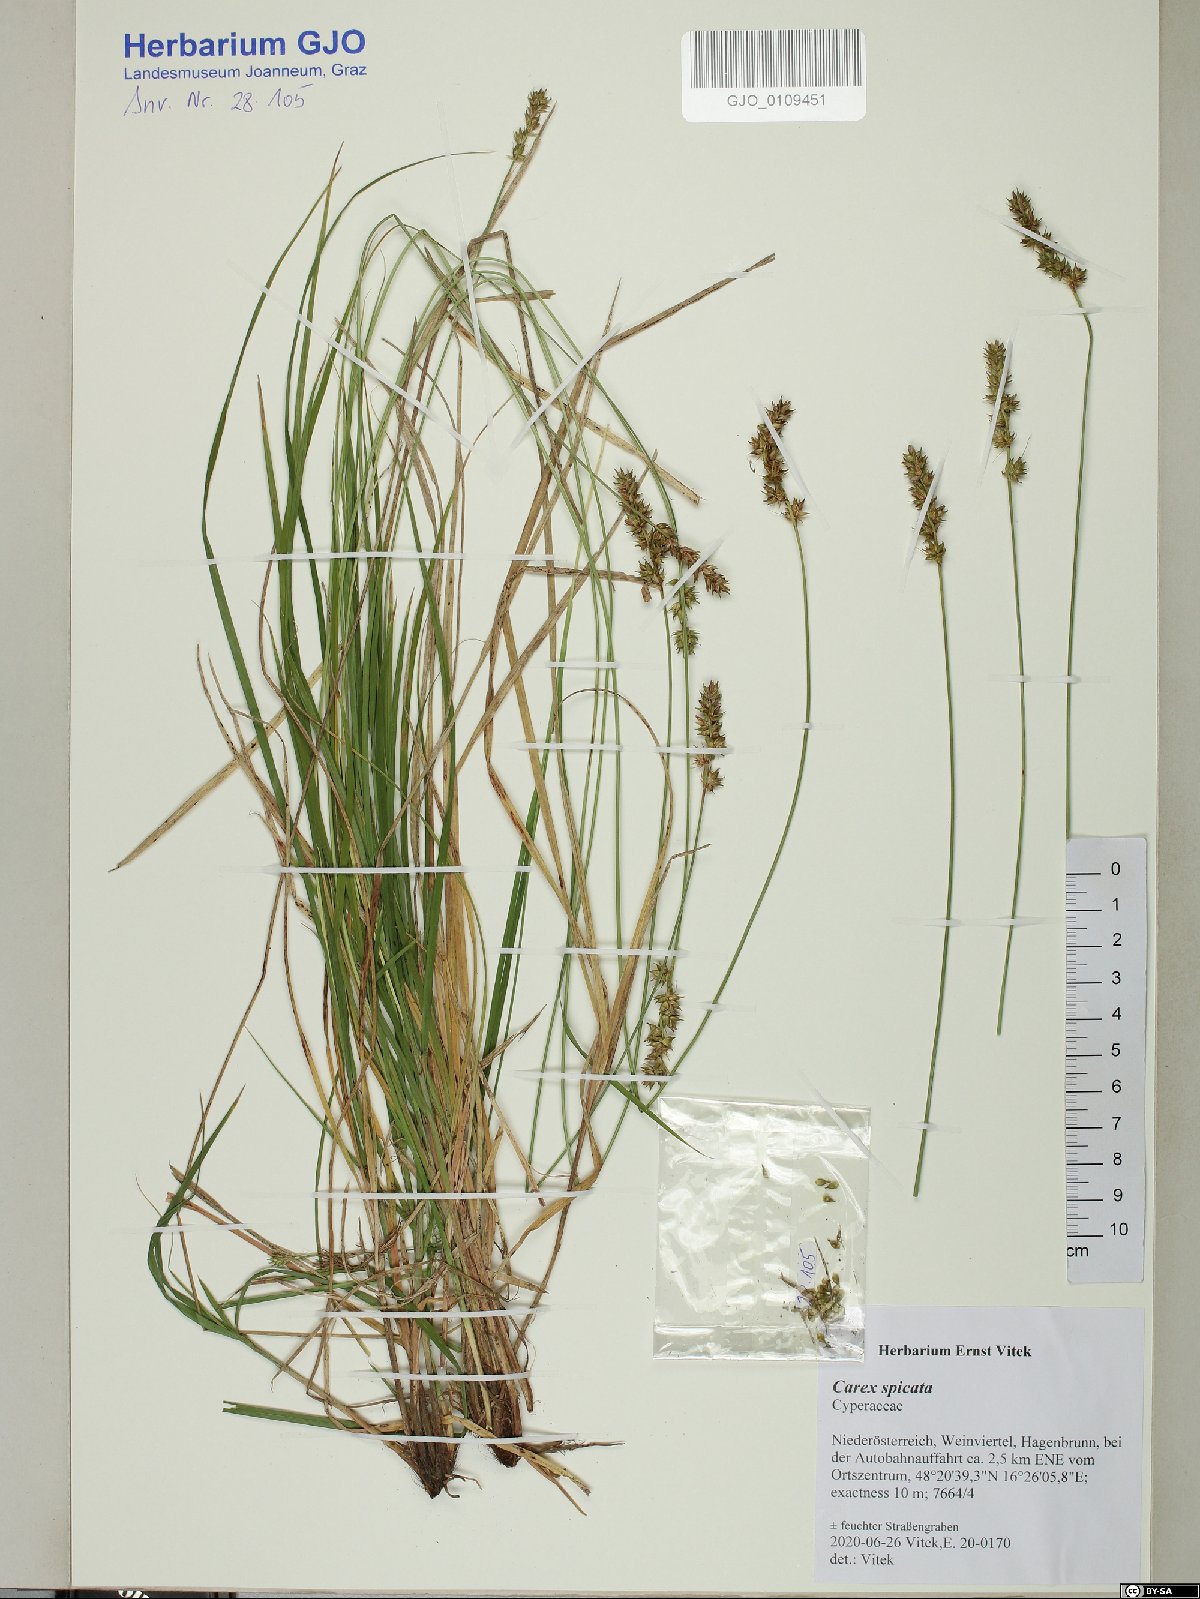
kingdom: Plantae
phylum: Tracheophyta
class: Magnoliopsida
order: Caryophyllales
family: Cactaceae
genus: Soehrensia
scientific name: Soehrensia tarijensis
